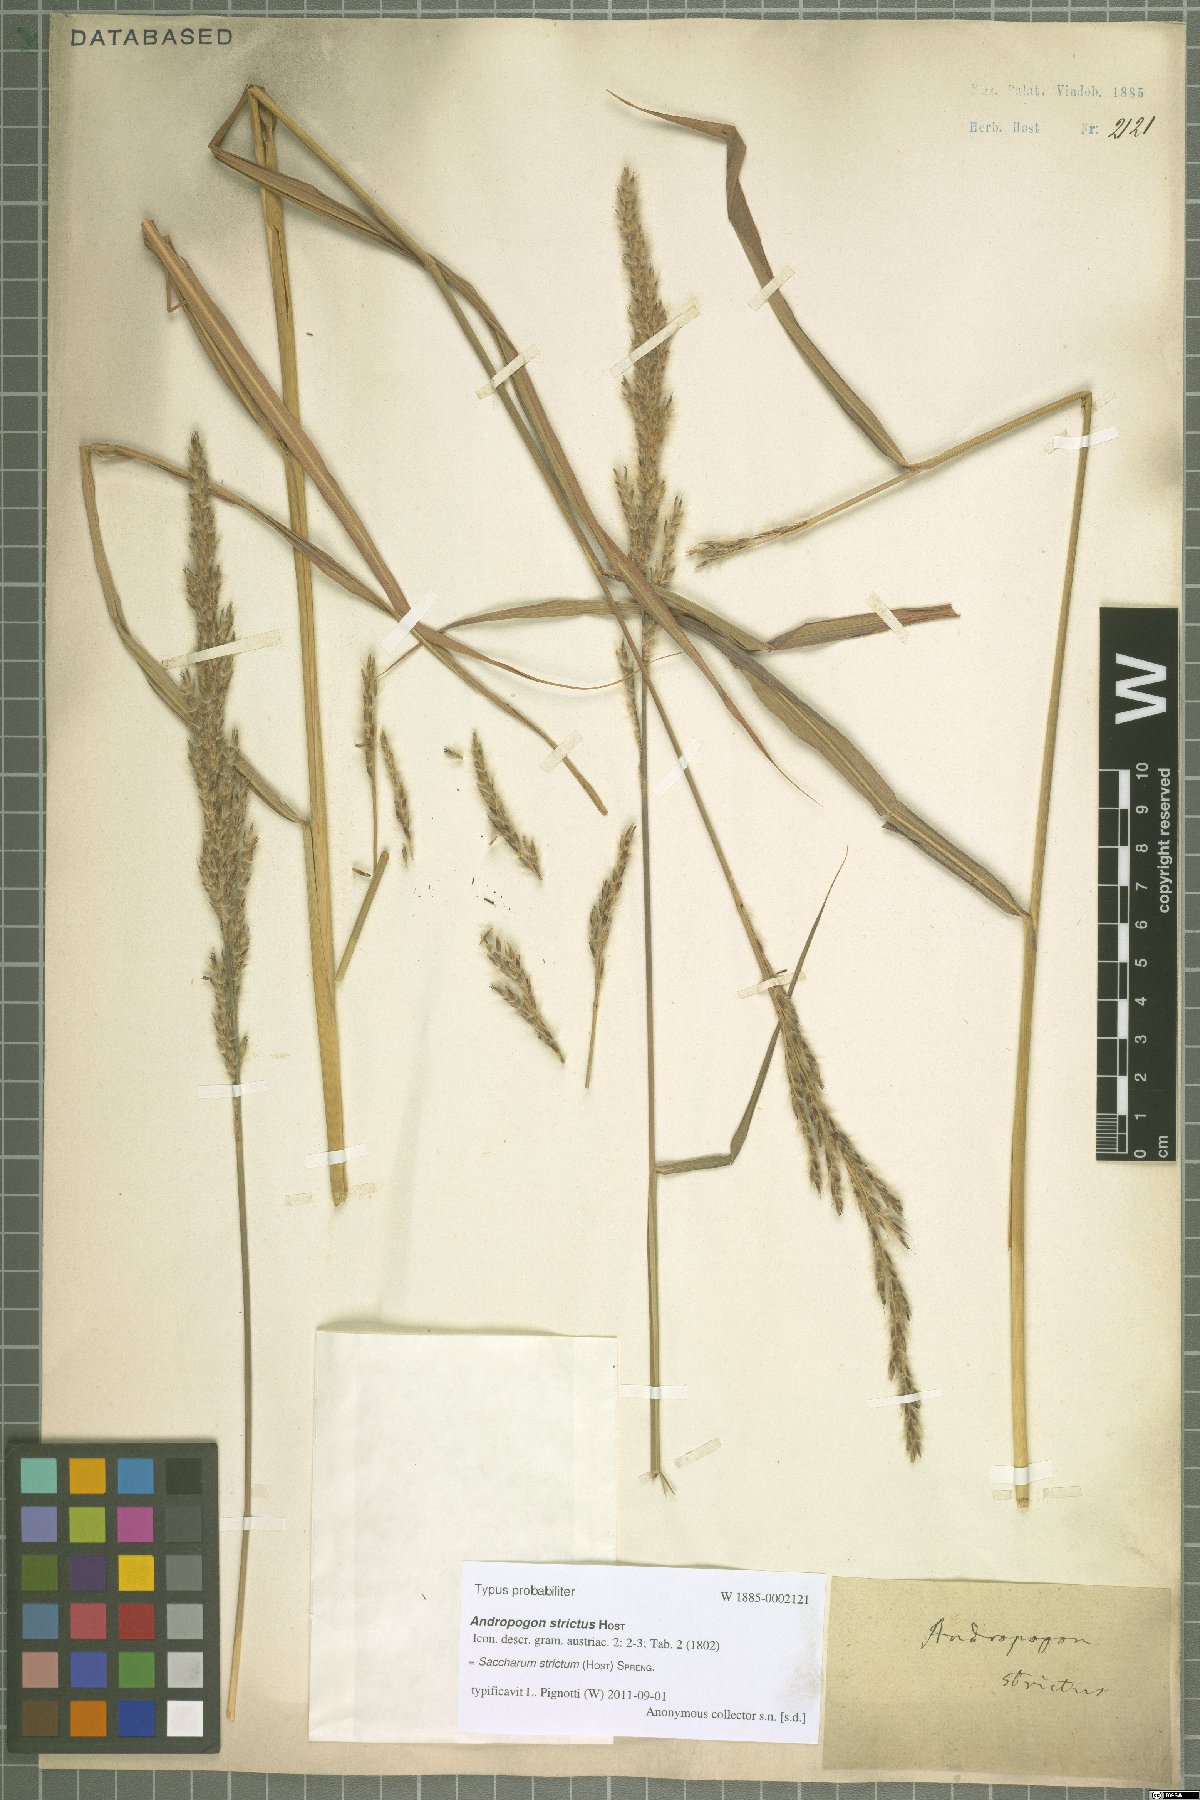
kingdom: Plantae
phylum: Tracheophyta
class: Liliopsida
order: Poales
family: Poaceae
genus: Tripidium
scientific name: Tripidium strictum
